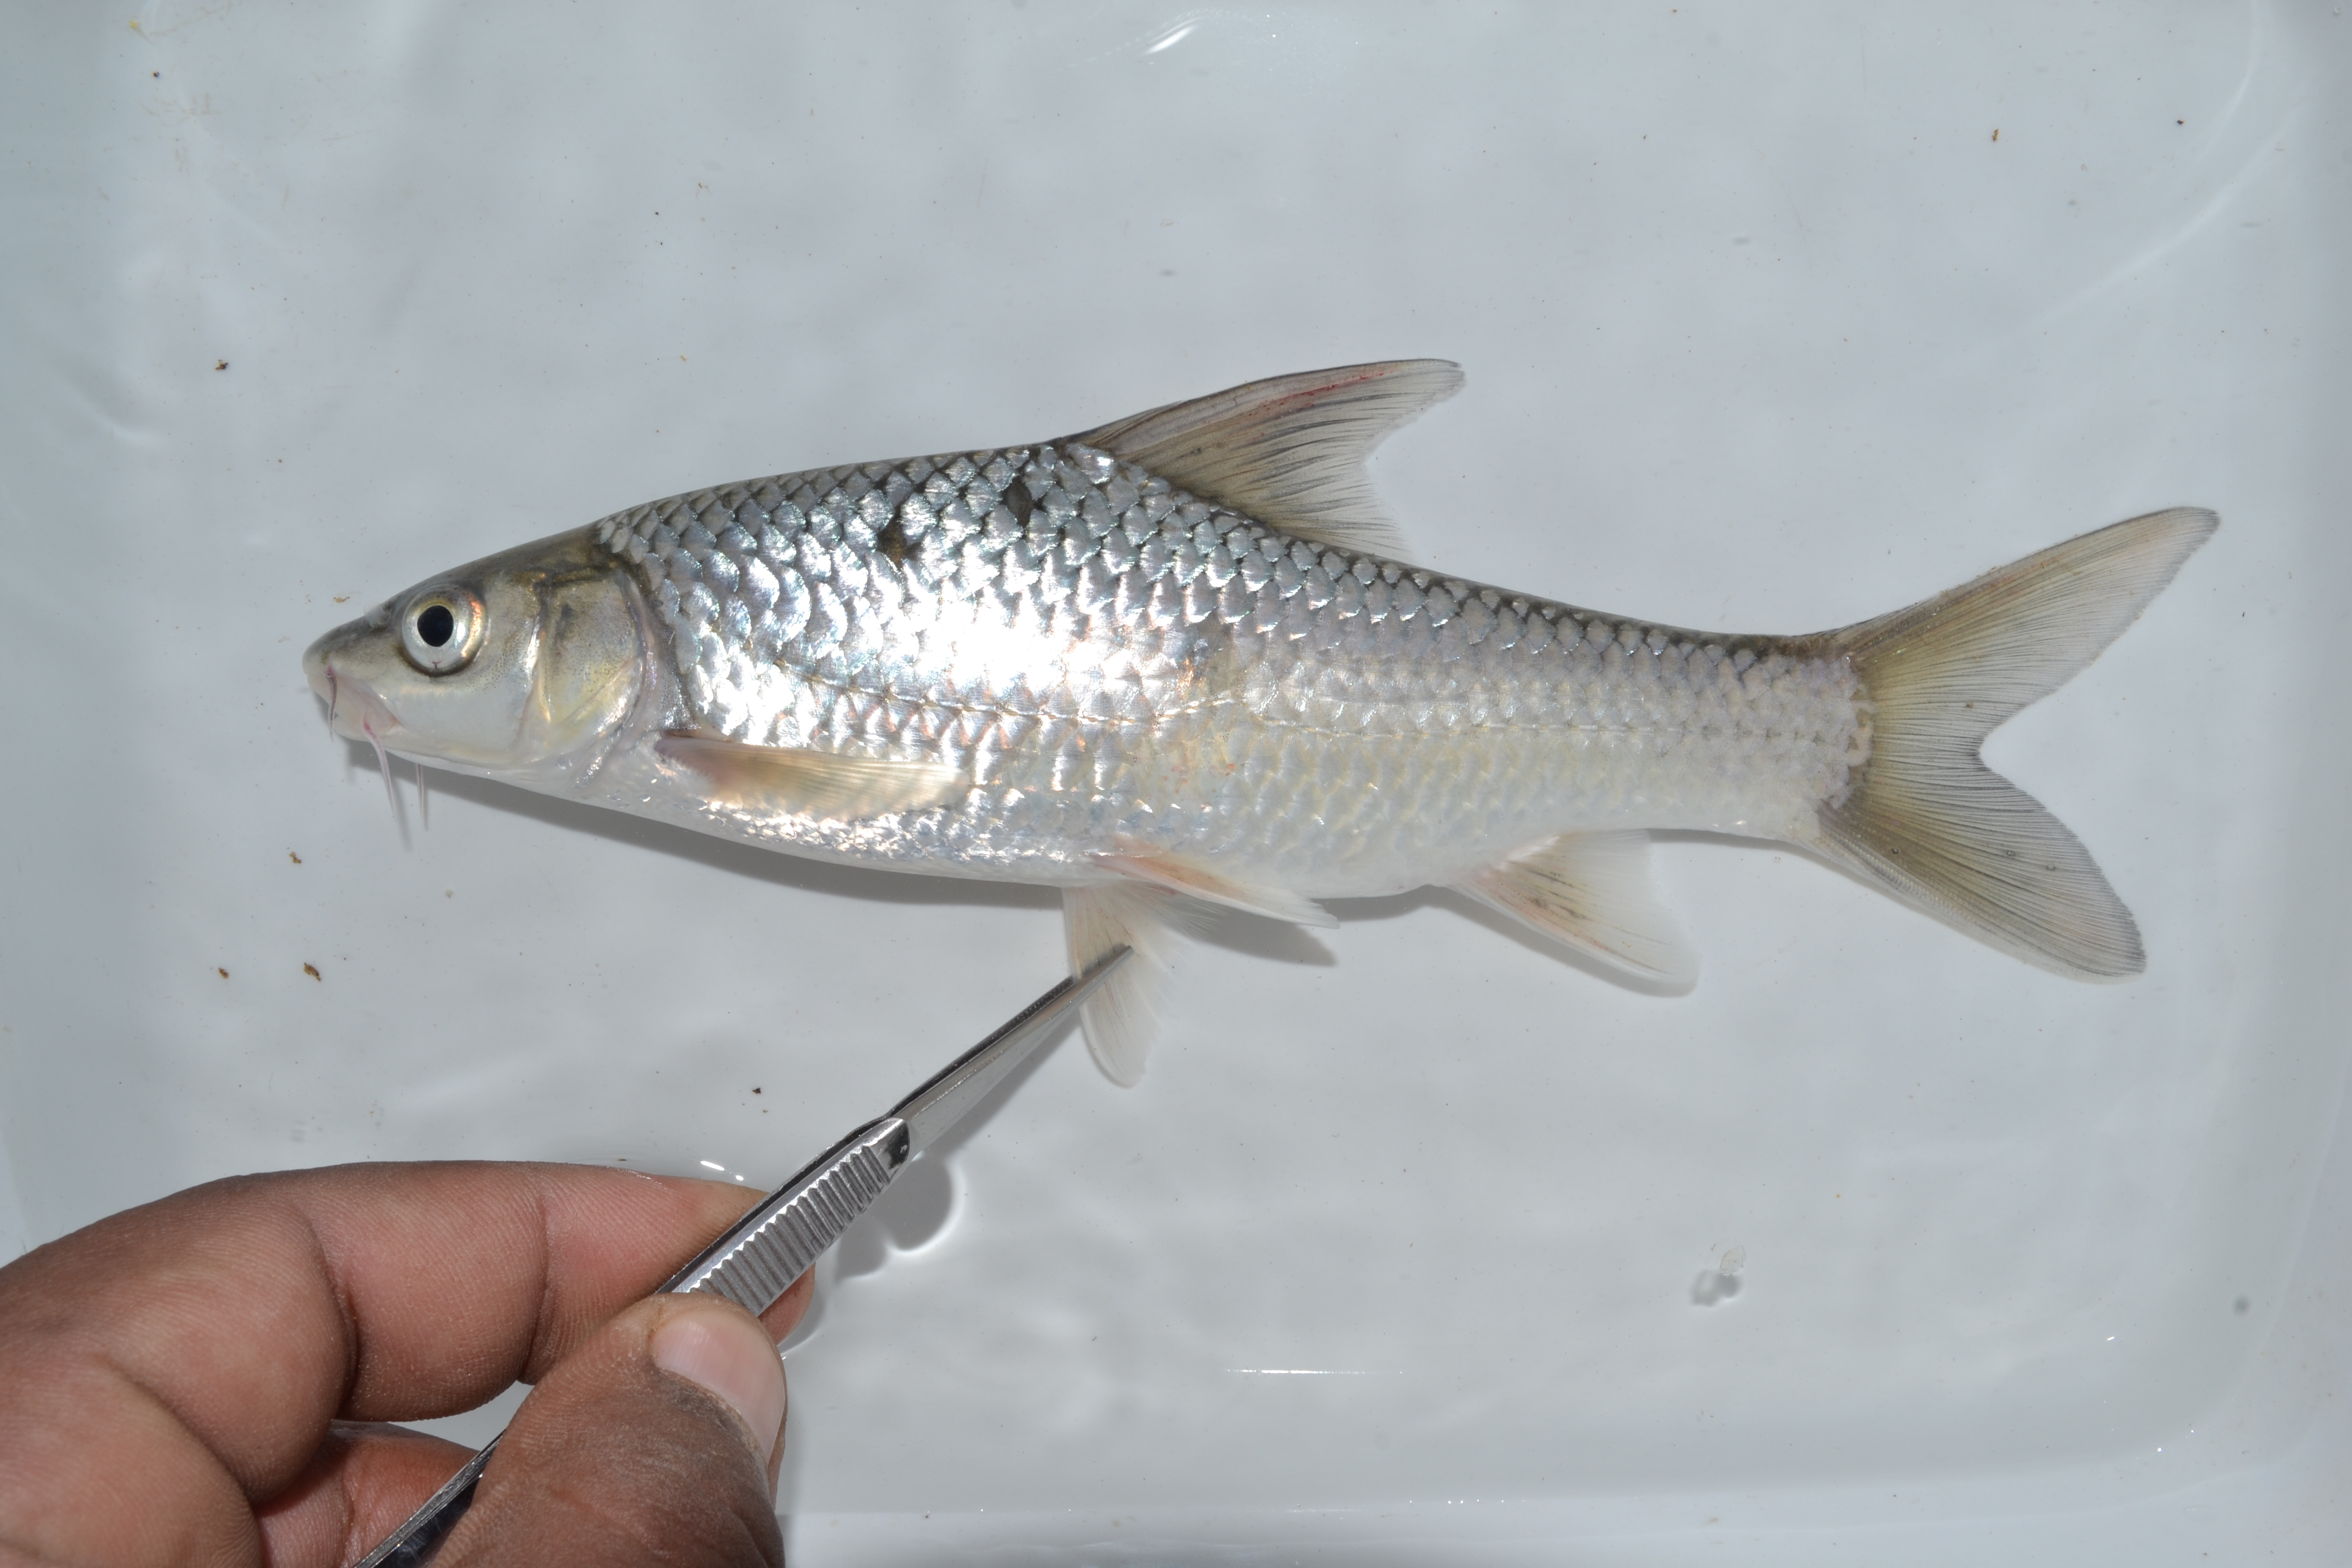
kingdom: Animalia
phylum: Chordata
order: Cypriniformes
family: Cyprinidae
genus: Labeobarbus
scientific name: Labeobarbus natalensis
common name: Scaly
